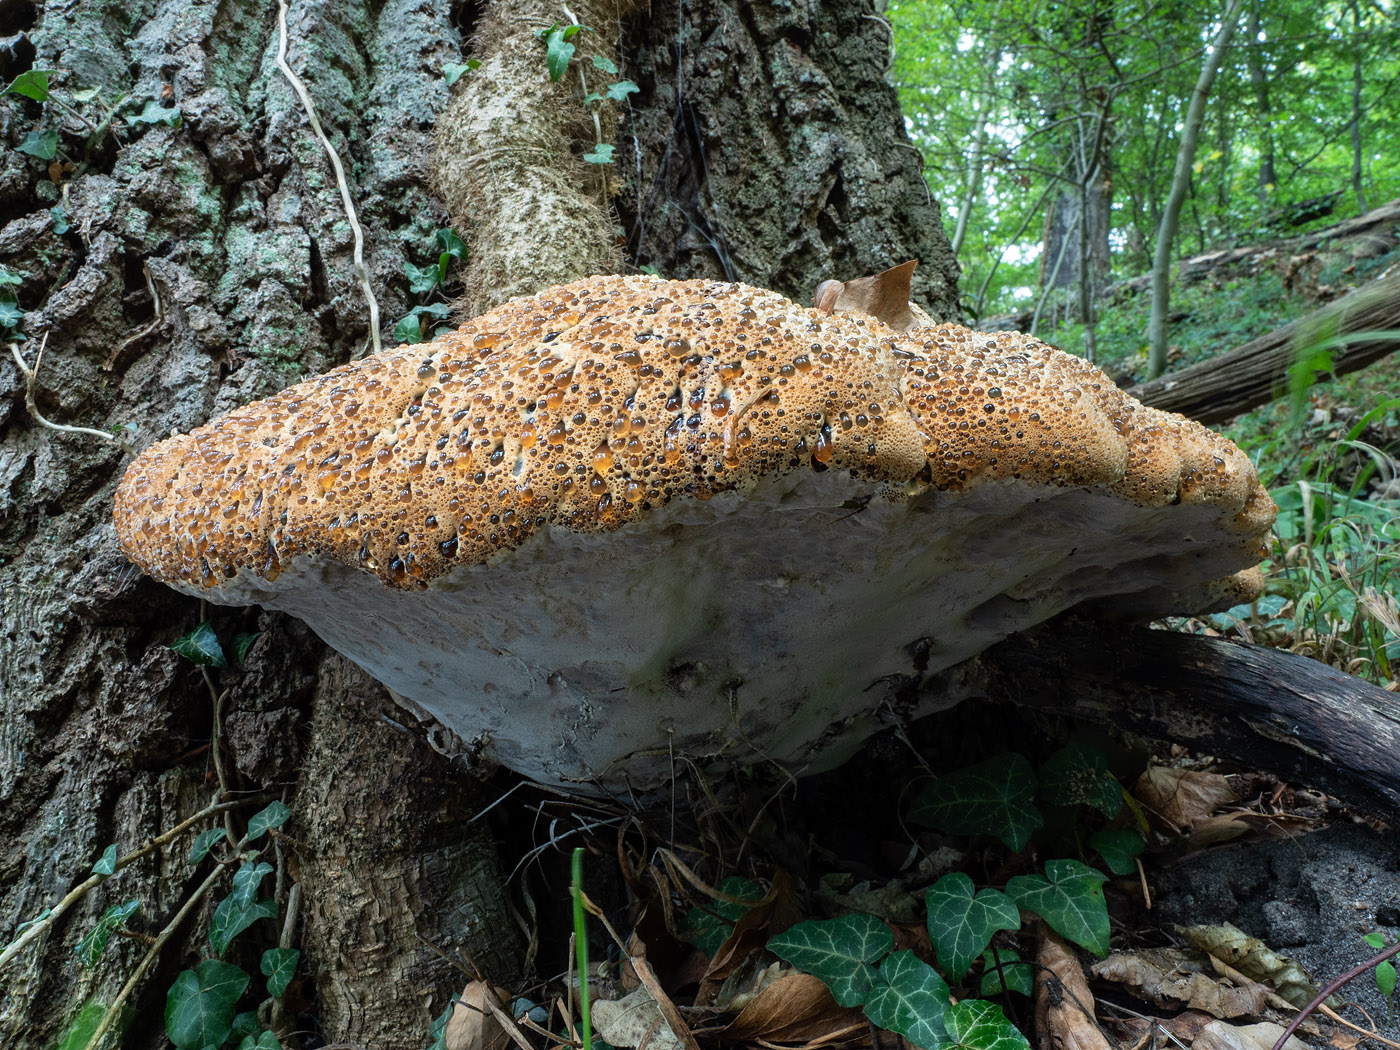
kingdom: Fungi
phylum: Basidiomycota
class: Agaricomycetes
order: Hymenochaetales
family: Hymenochaetaceae
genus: Pseudoinonotus
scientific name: Pseudoinonotus dryadeus
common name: ege-spejlporesvamp
